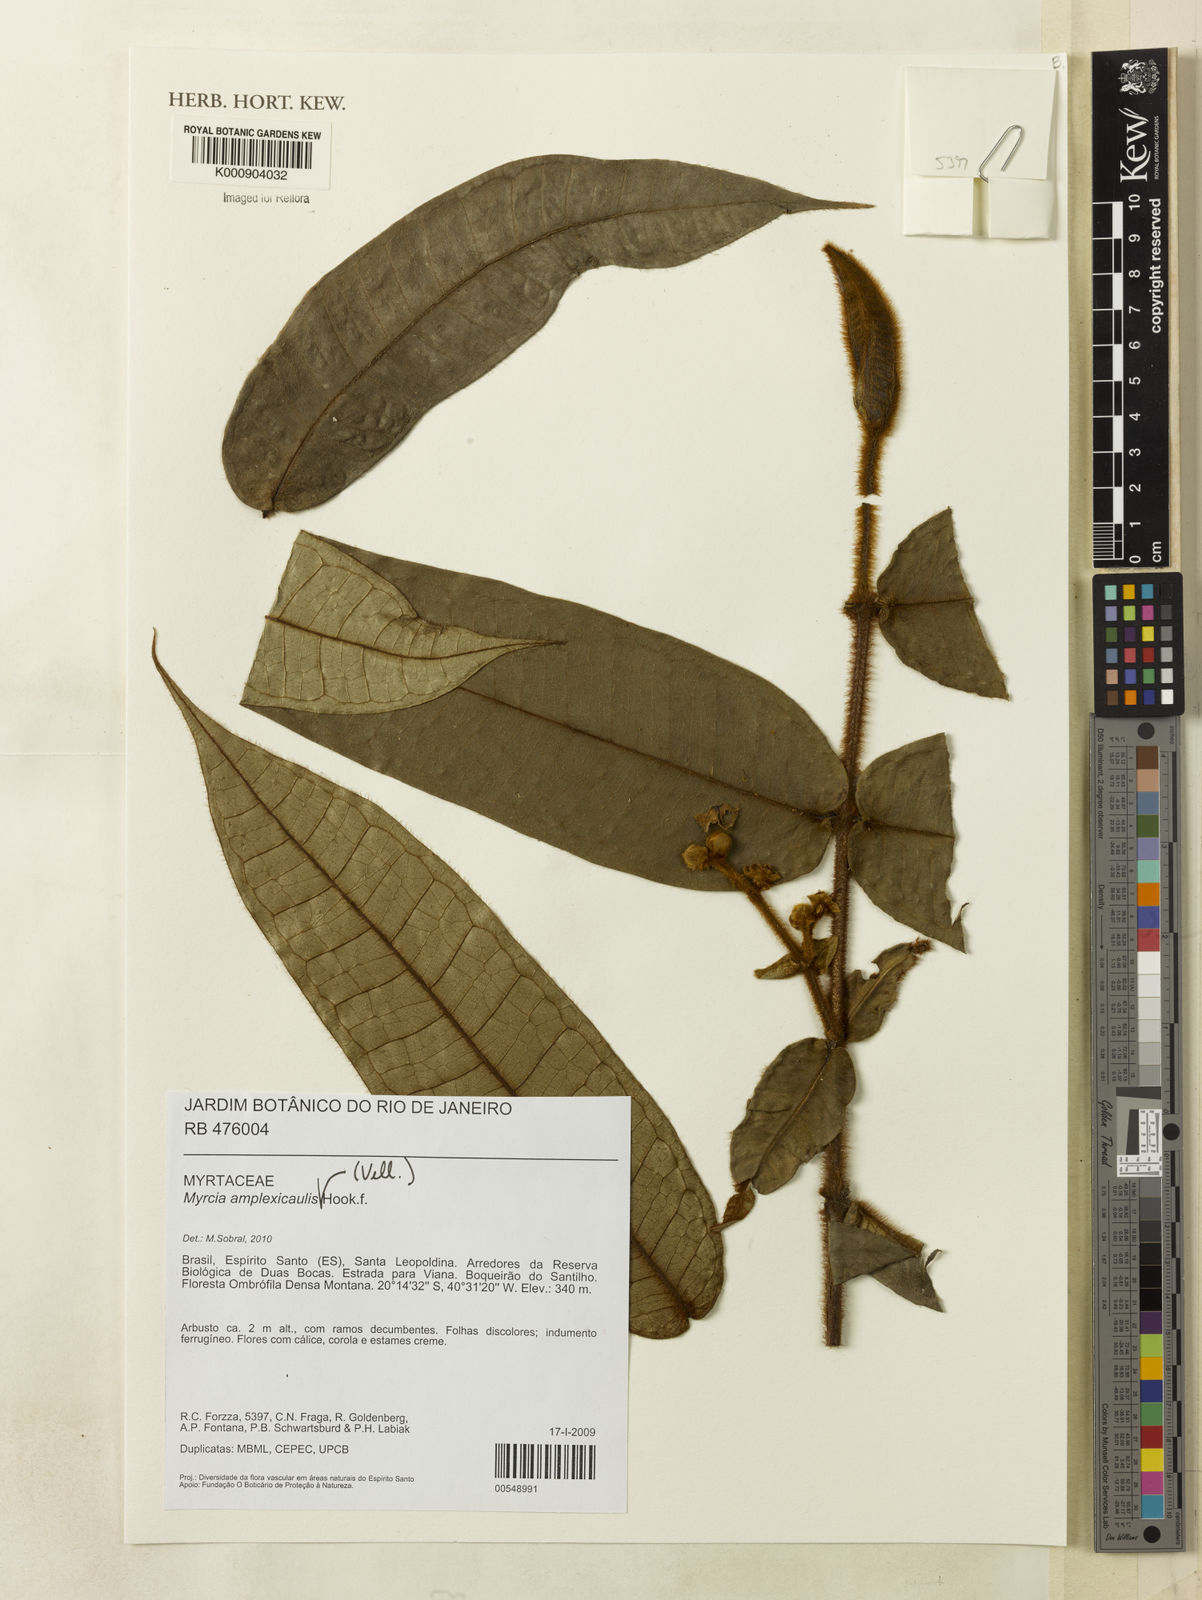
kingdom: Plantae
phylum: Tracheophyta
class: Magnoliopsida
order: Myrtales
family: Myrtaceae
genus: Myrcia
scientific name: Myrcia amplexicaulis
